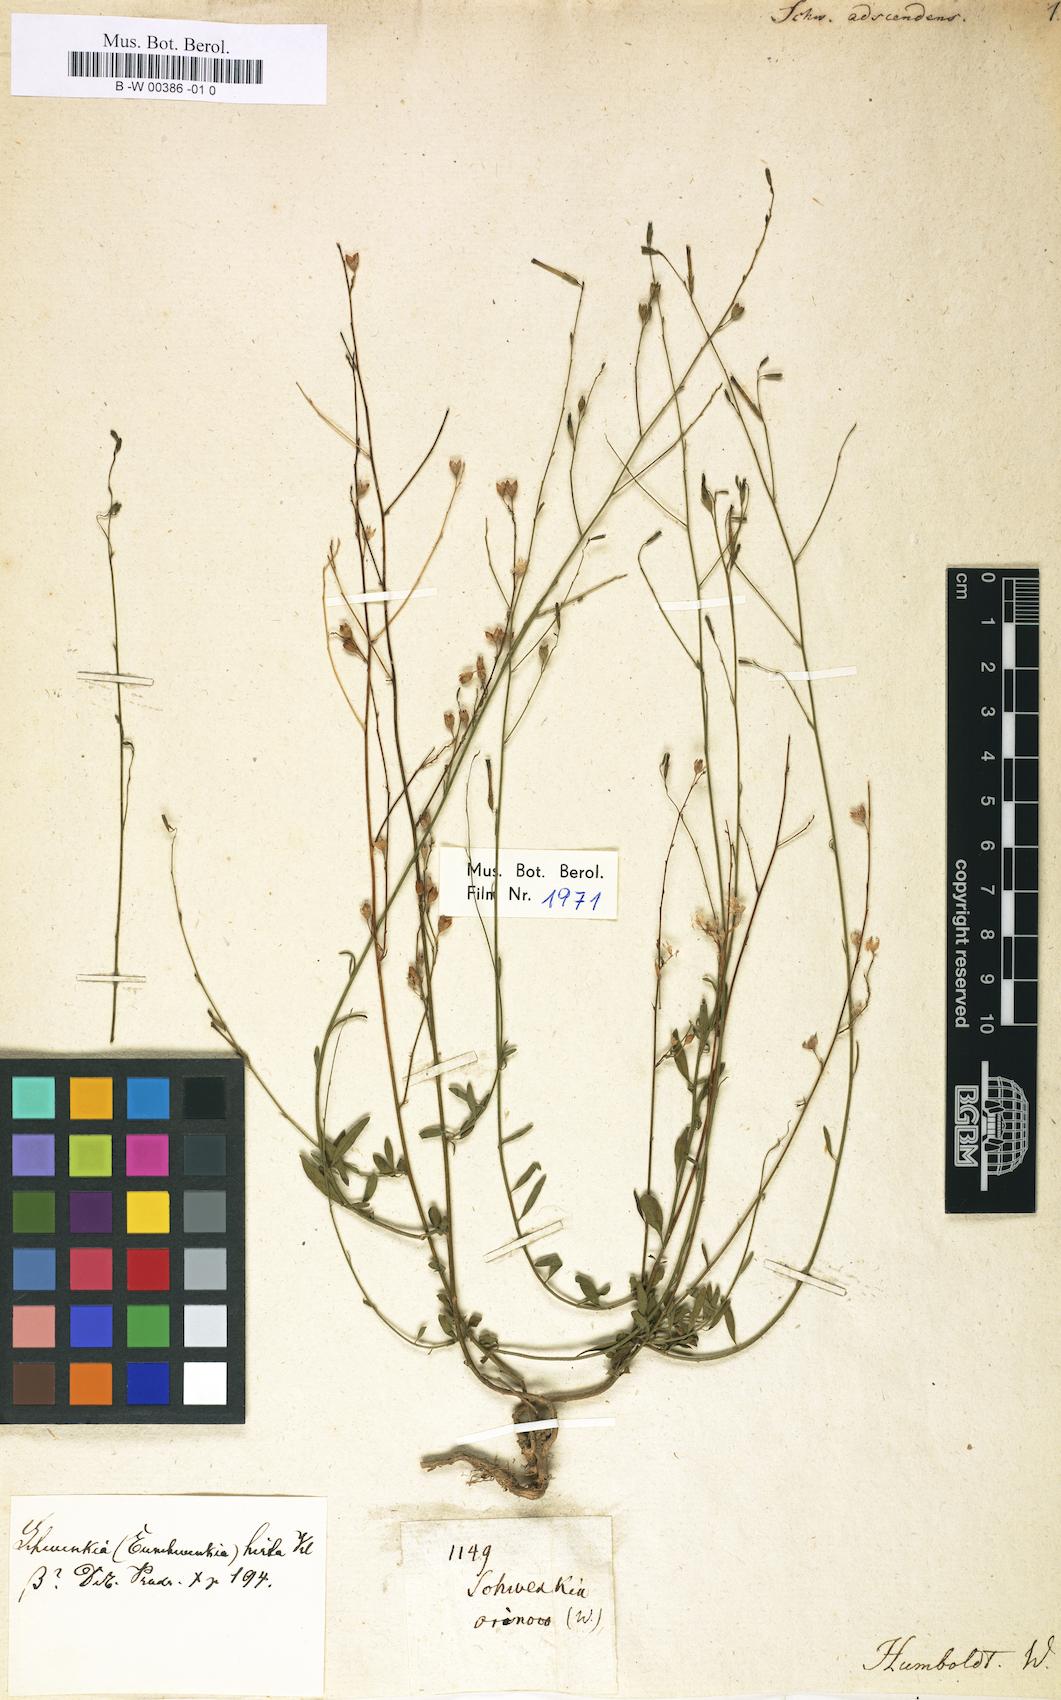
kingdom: Plantae
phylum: Tracheophyta
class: Magnoliopsida
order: Solanales
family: Solanaceae
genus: Schwenckia
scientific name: Schwenckia americana
